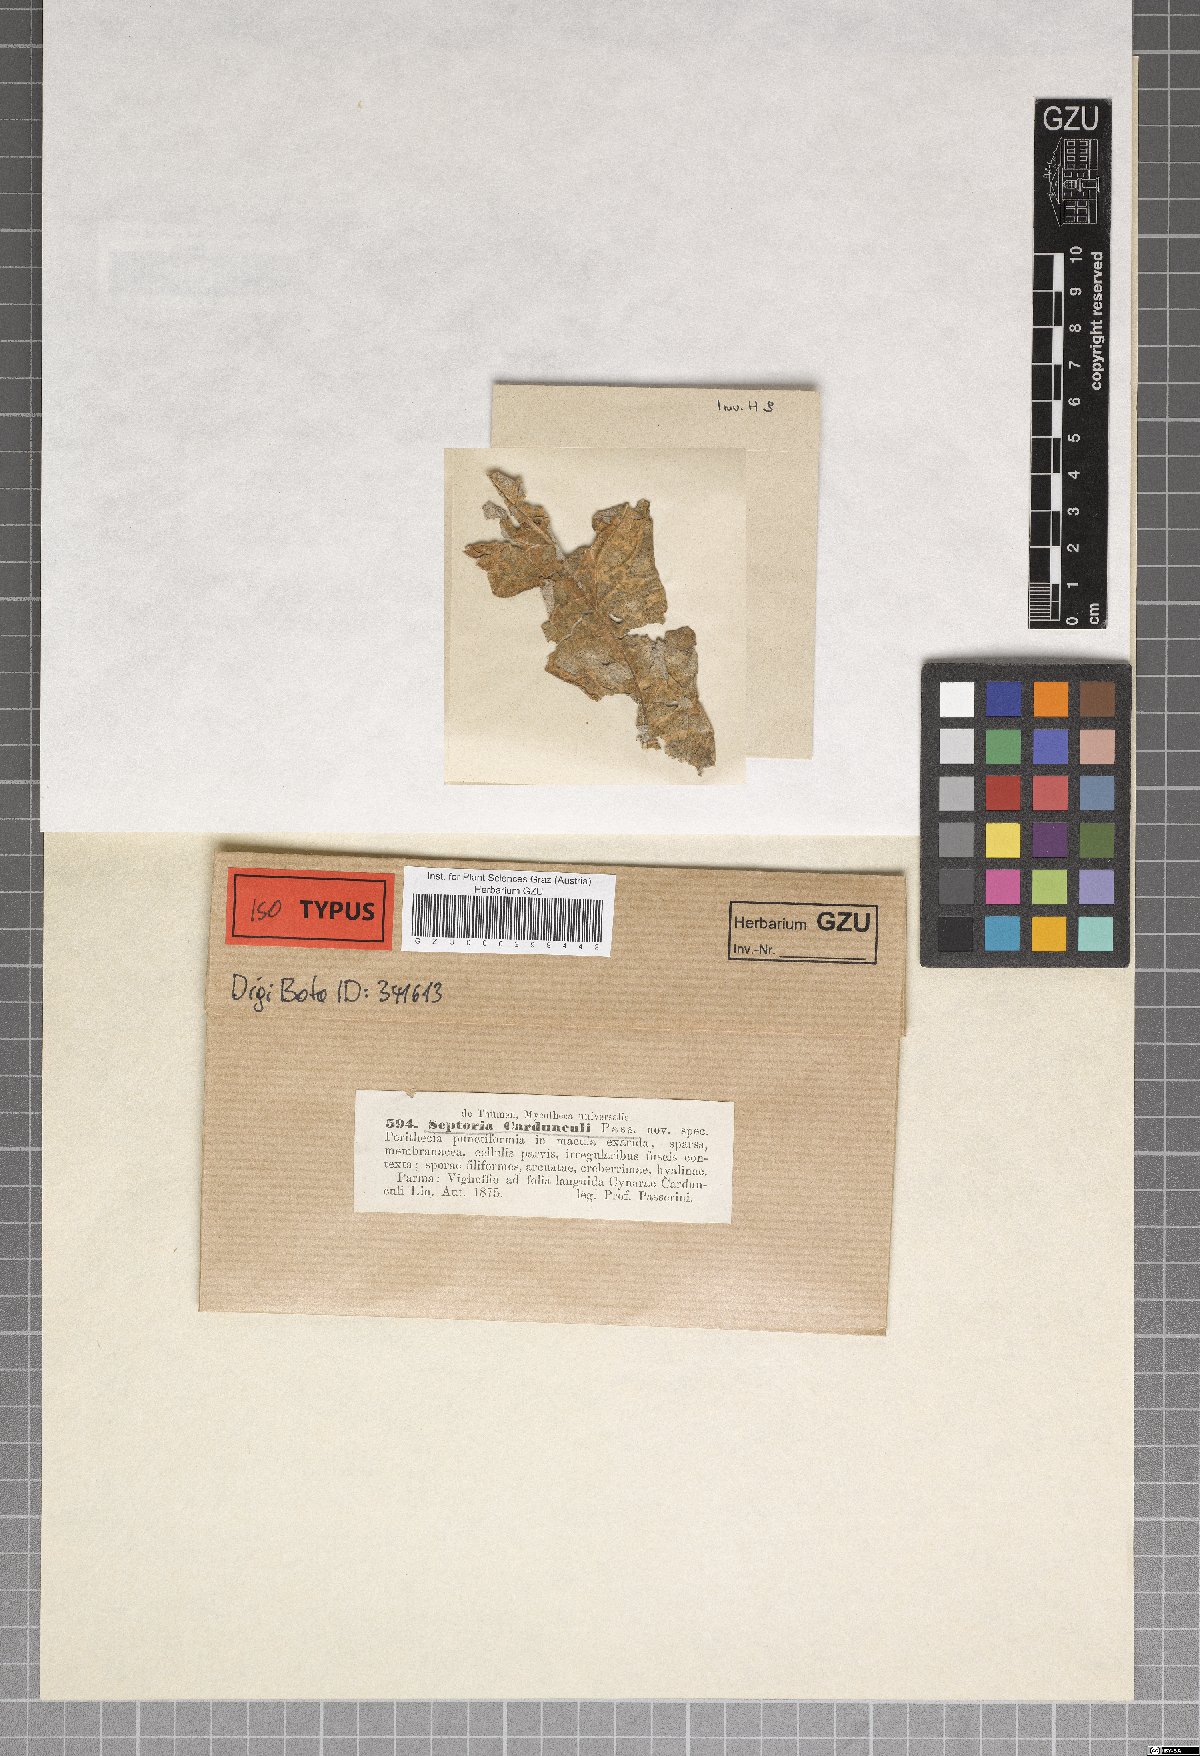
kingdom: Fungi
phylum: Ascomycota
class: Dothideomycetes
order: Mycosphaerellales
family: Mycosphaerellaceae
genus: Septoria
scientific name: Septoria
